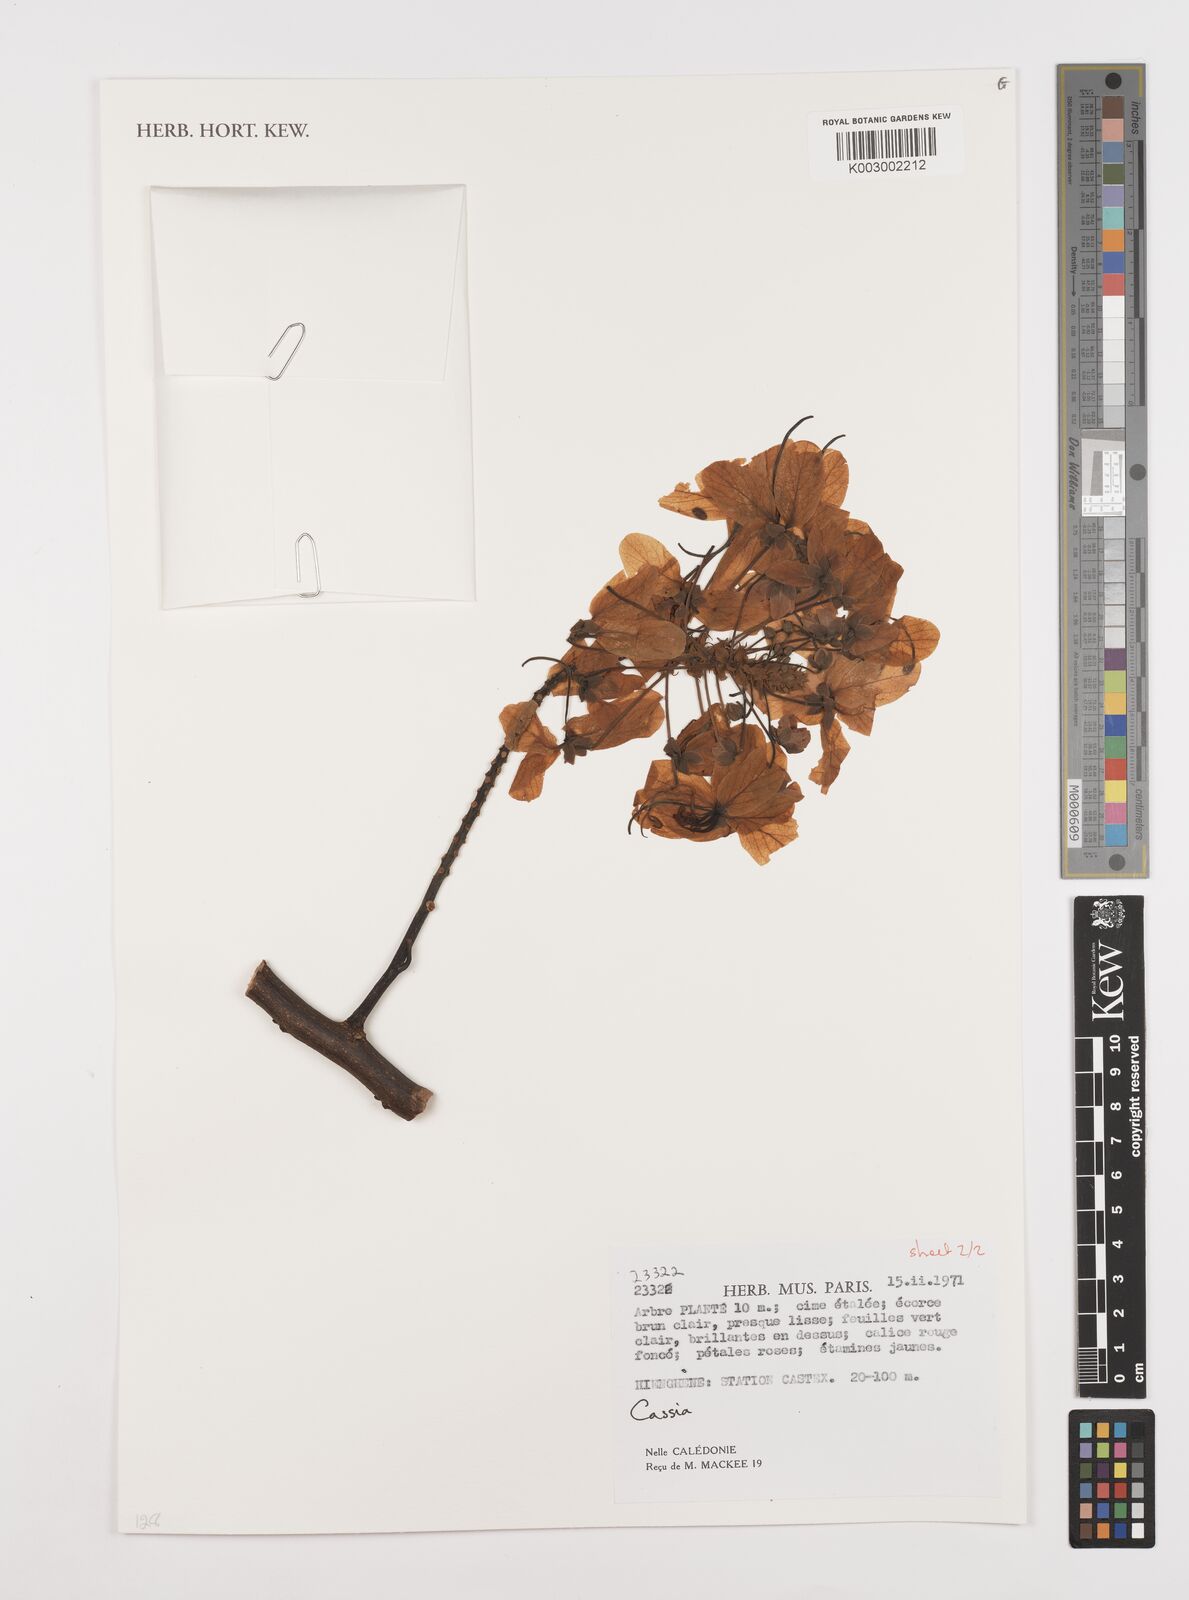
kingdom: Plantae
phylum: Tracheophyta
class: Magnoliopsida
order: Fabales
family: Fabaceae
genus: Cassia
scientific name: Cassia
